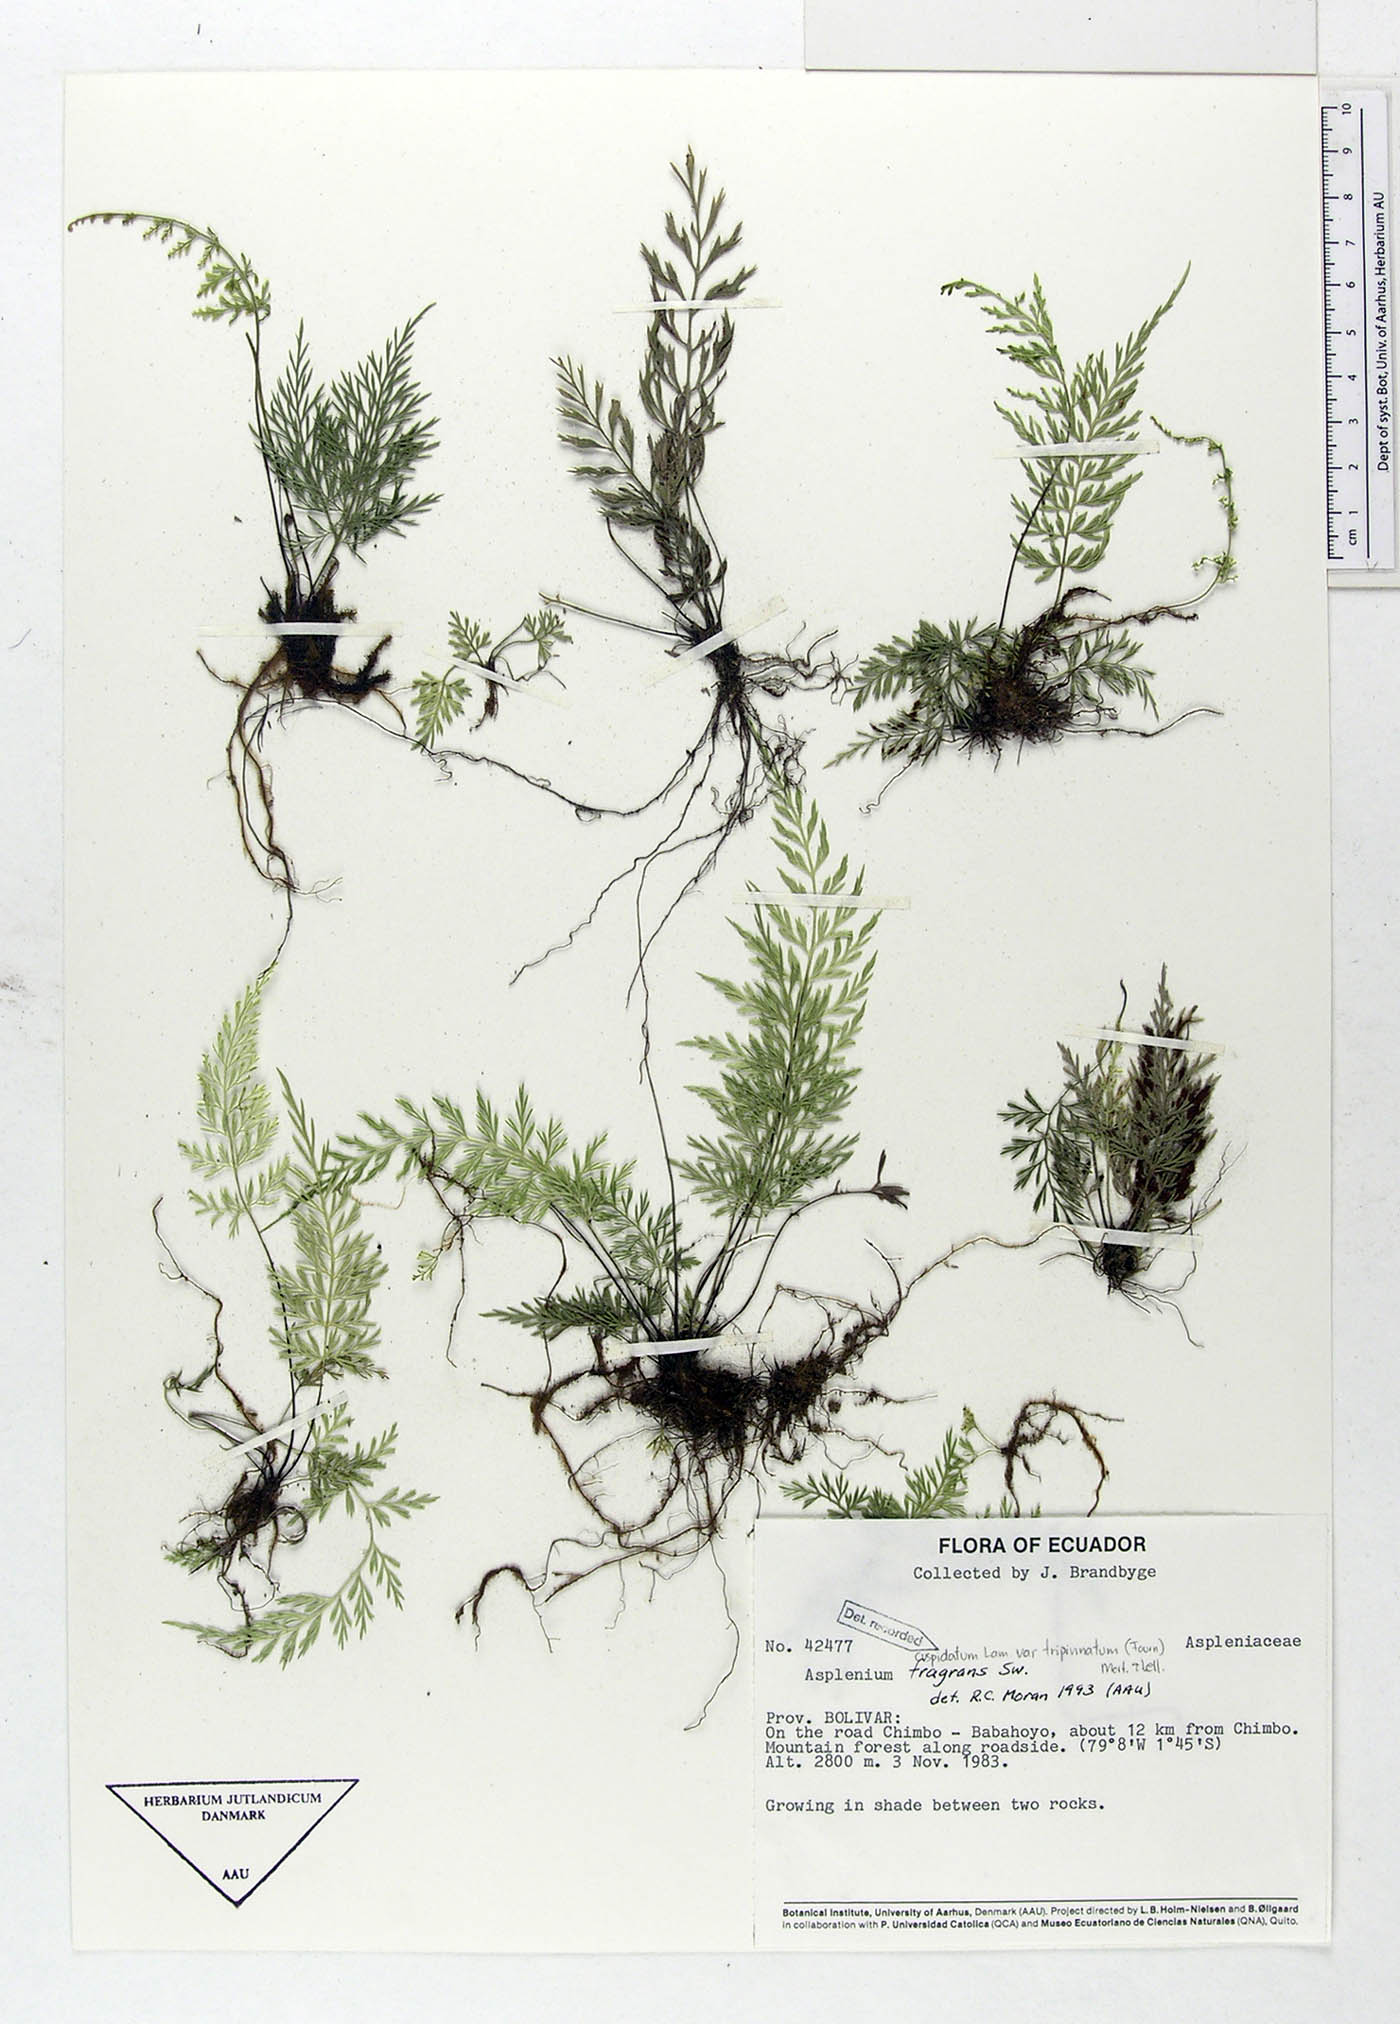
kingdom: Plantae
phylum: Tracheophyta
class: Polypodiopsida
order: Polypodiales
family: Aspleniaceae
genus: Asplenium
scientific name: Asplenium fragrans
